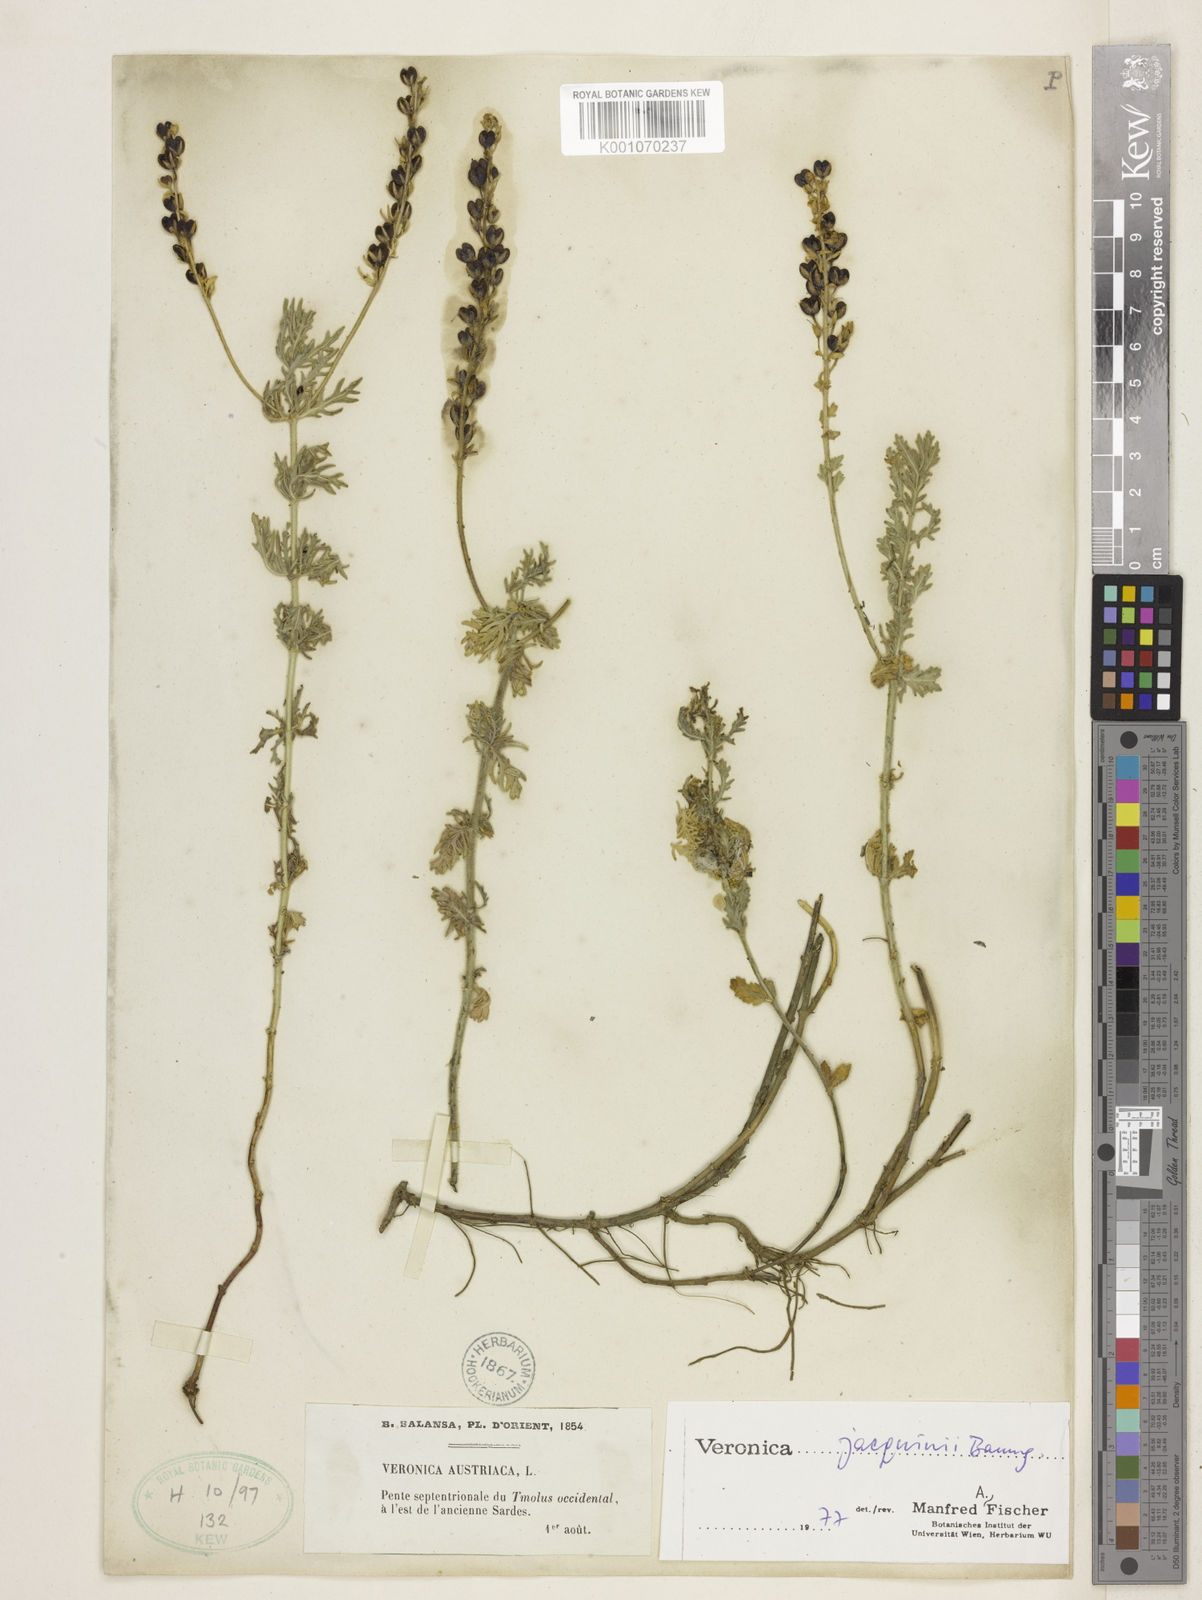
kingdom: Plantae
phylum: Tracheophyta
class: Magnoliopsida
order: Lamiales
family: Plantaginaceae
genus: Veronica
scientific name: Veronica austriaca
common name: Large speedwell
